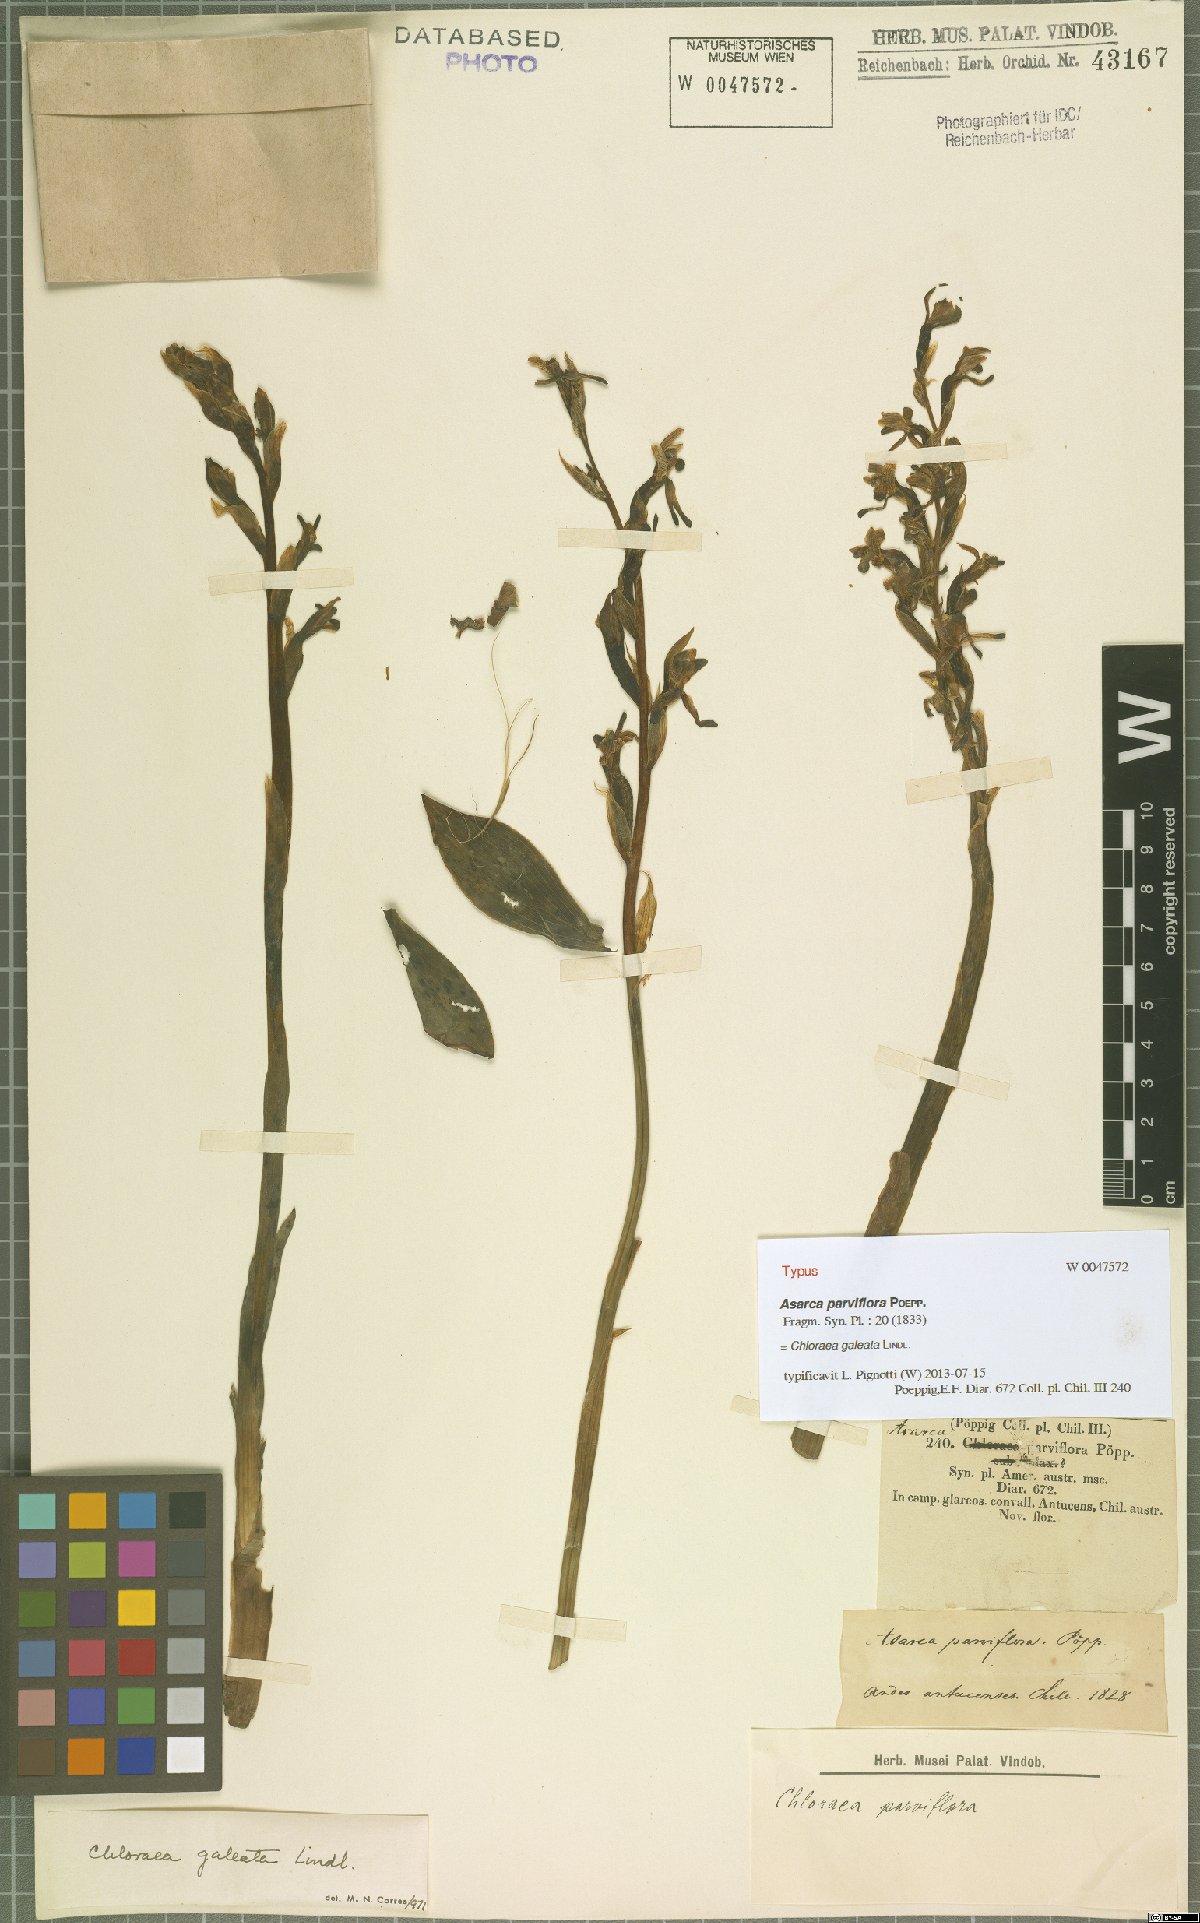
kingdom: Plantae
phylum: Tracheophyta
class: Liliopsida
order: Asparagales
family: Orchidaceae
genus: Chloraea
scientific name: Chloraea galeata
